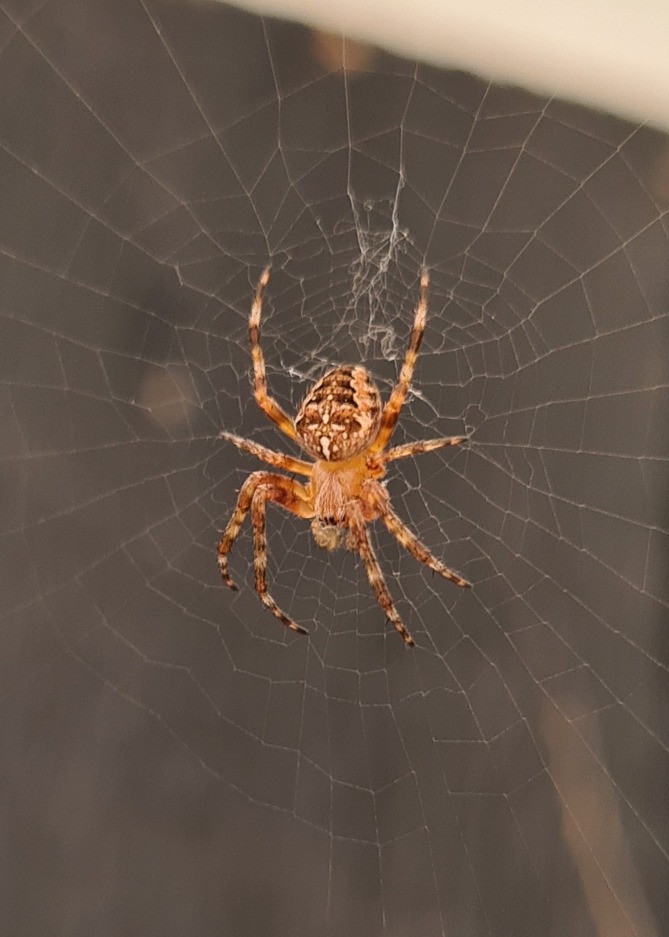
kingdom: Animalia
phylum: Arthropoda
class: Arachnida
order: Araneae
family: Araneidae
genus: Araneus
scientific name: Araneus diadematus
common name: Korsedderkop
